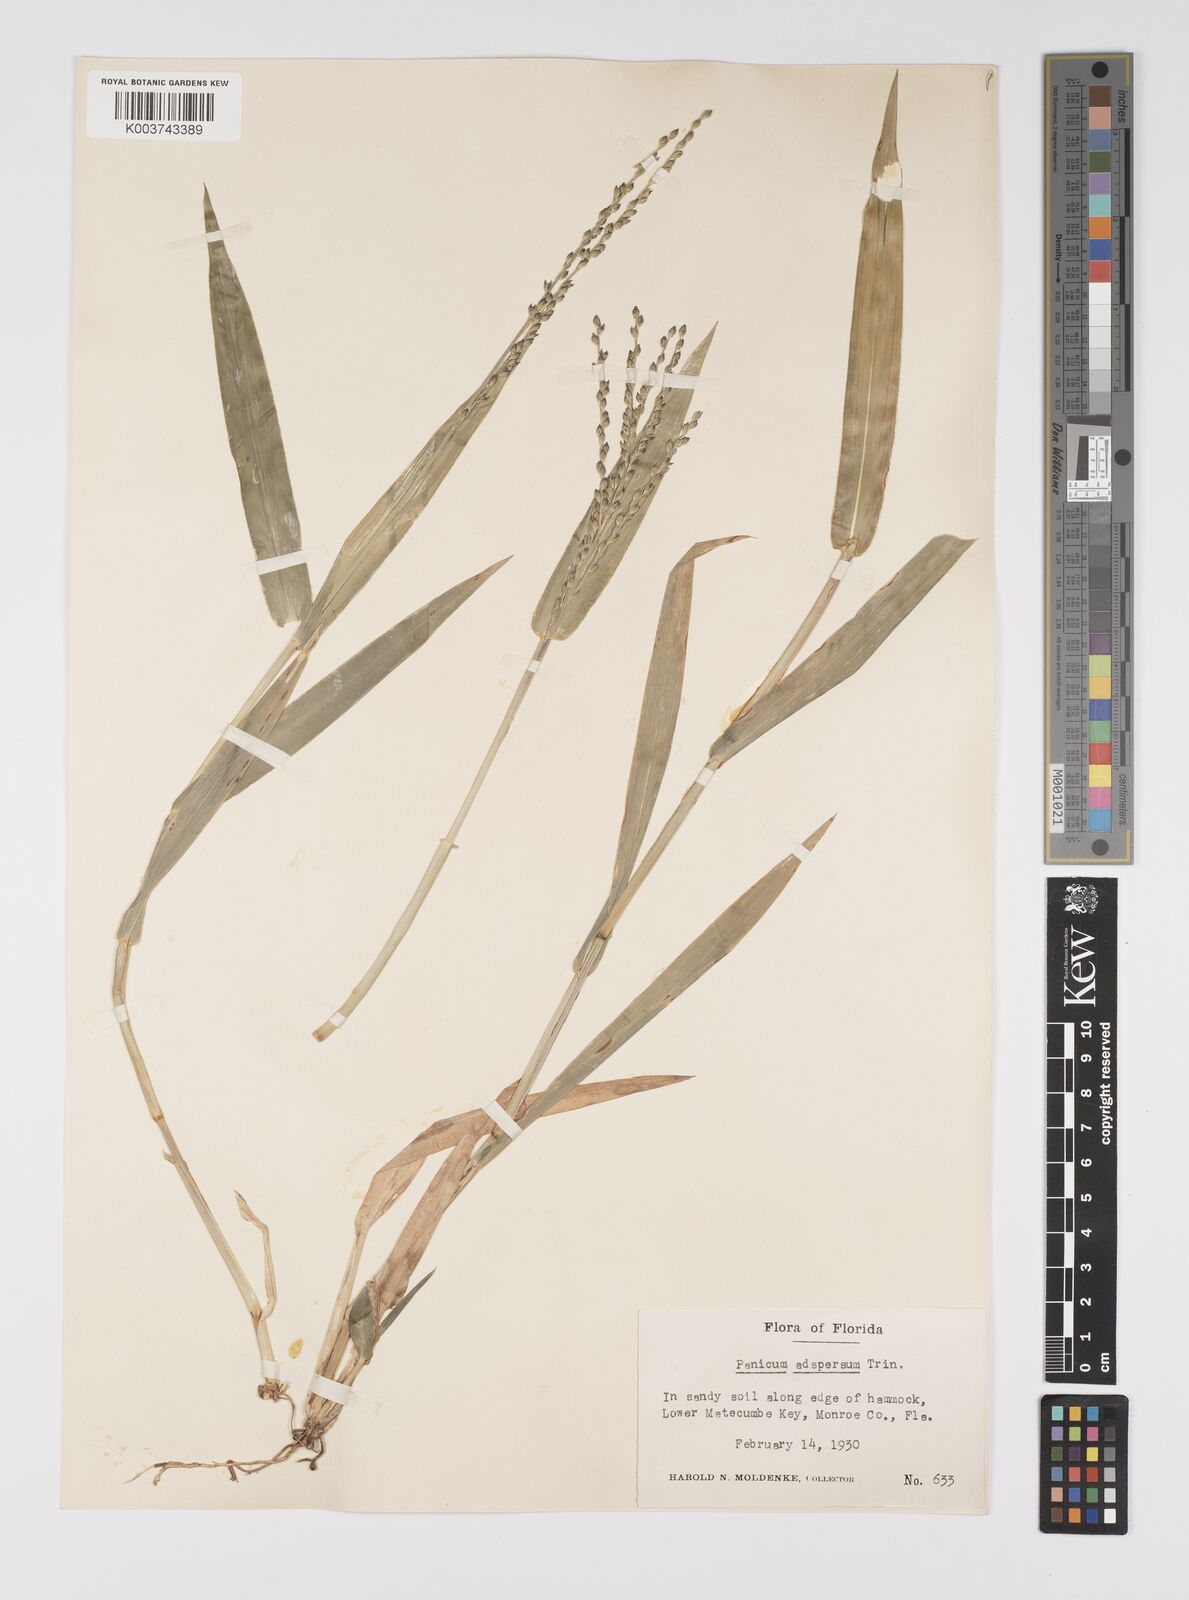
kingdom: Plantae
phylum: Tracheophyta
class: Liliopsida
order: Poales
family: Poaceae
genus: Urochloa
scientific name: Urochloa adspersa
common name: Dominican signal grass
